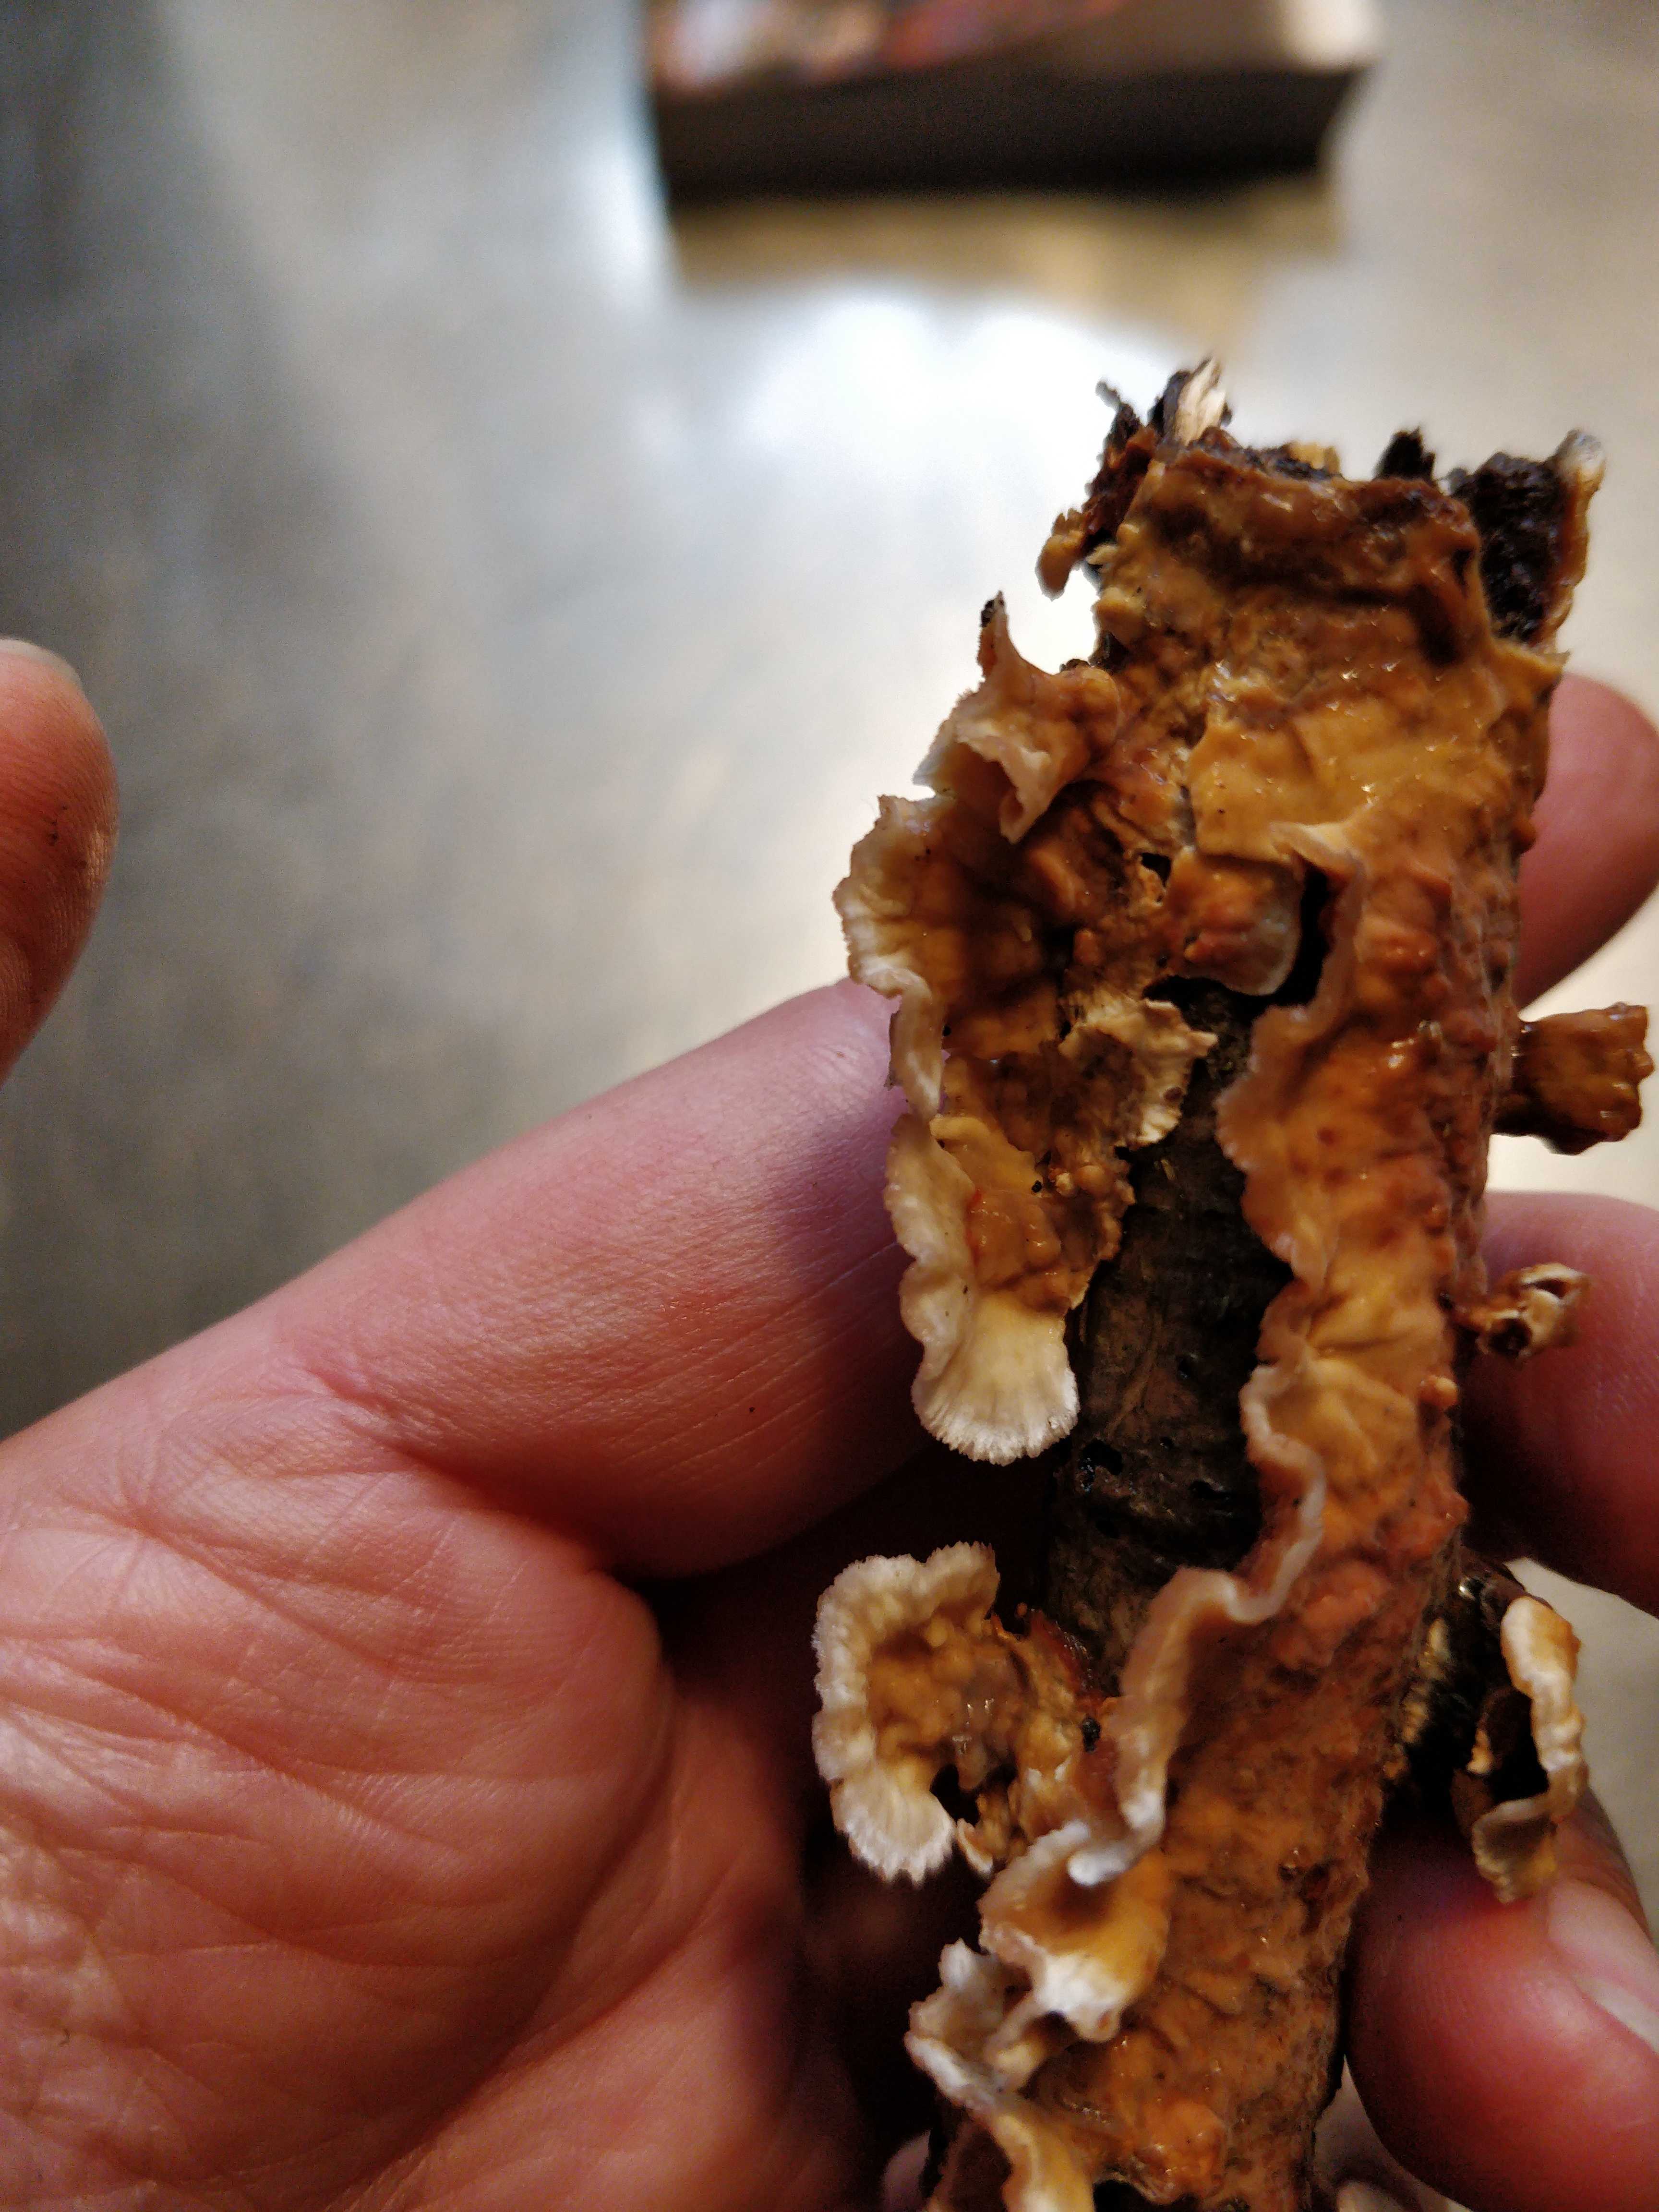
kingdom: Fungi
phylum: Basidiomycota
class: Agaricomycetes
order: Russulales
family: Stereaceae
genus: Stereum
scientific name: Stereum hirsutum
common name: håret lædersvamp
